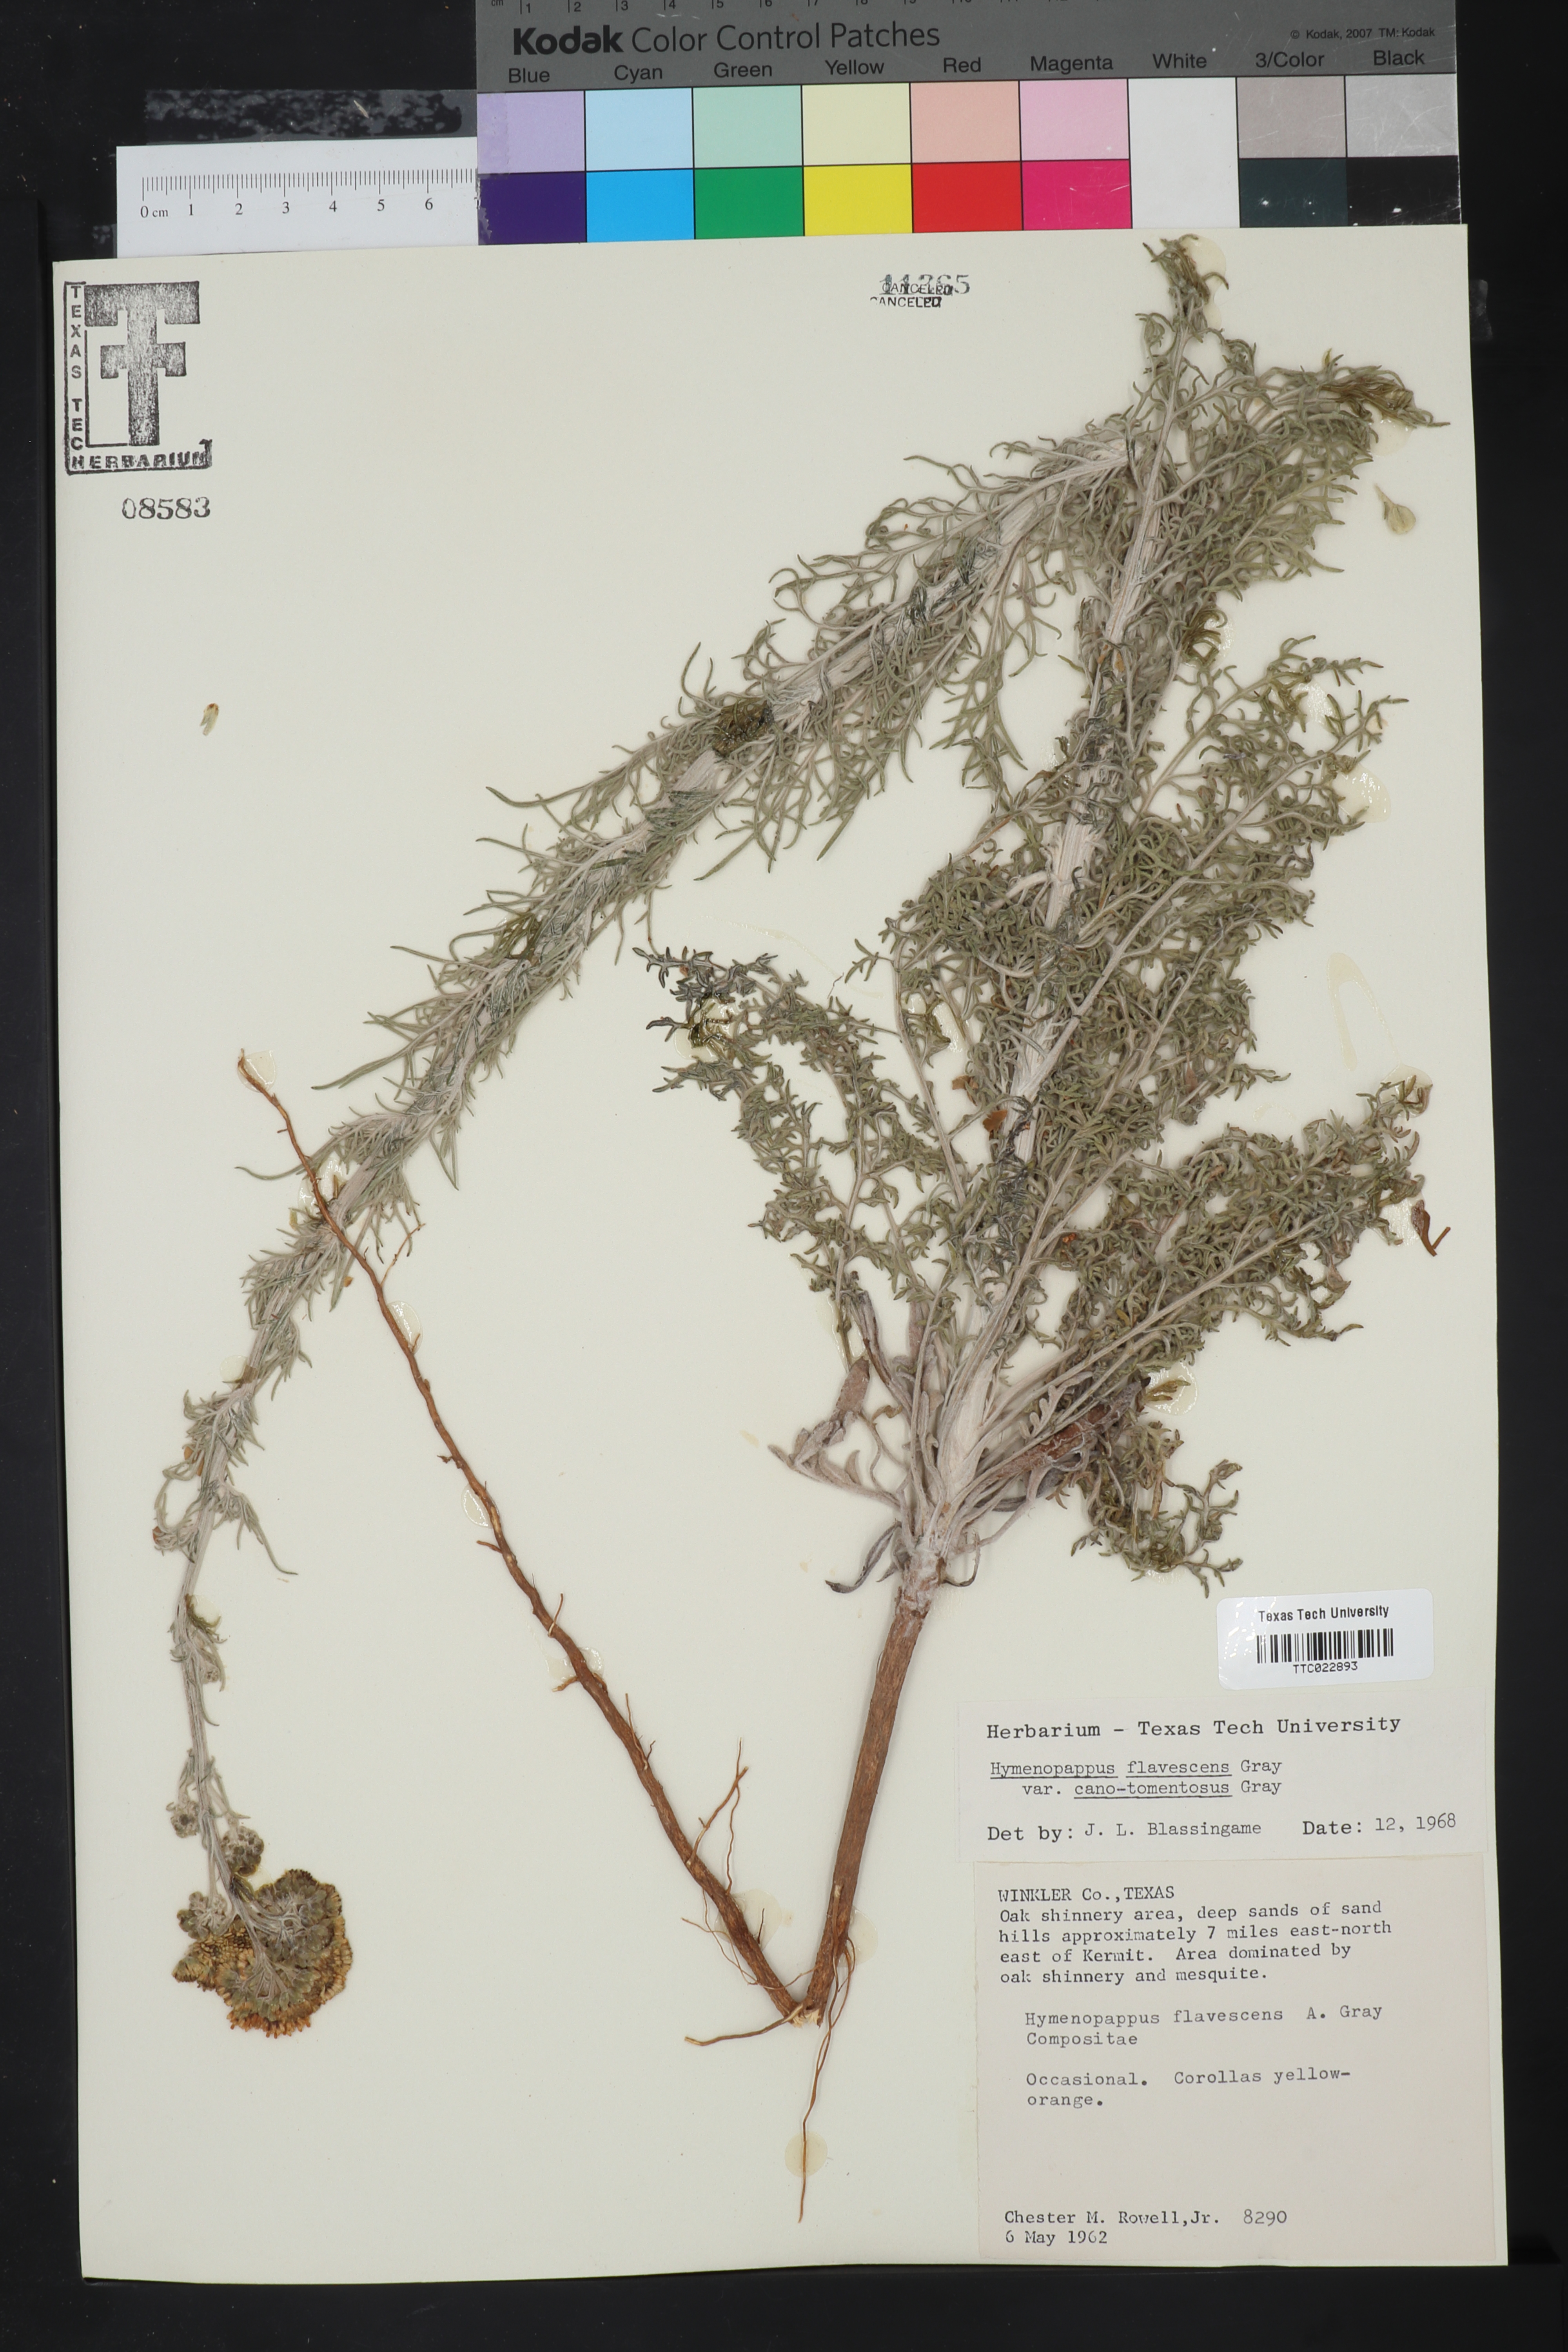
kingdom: Plantae
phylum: Tracheophyta
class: Magnoliopsida
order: Asterales
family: Asteraceae
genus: Hymenopappus
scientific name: Hymenopappus flavescens
